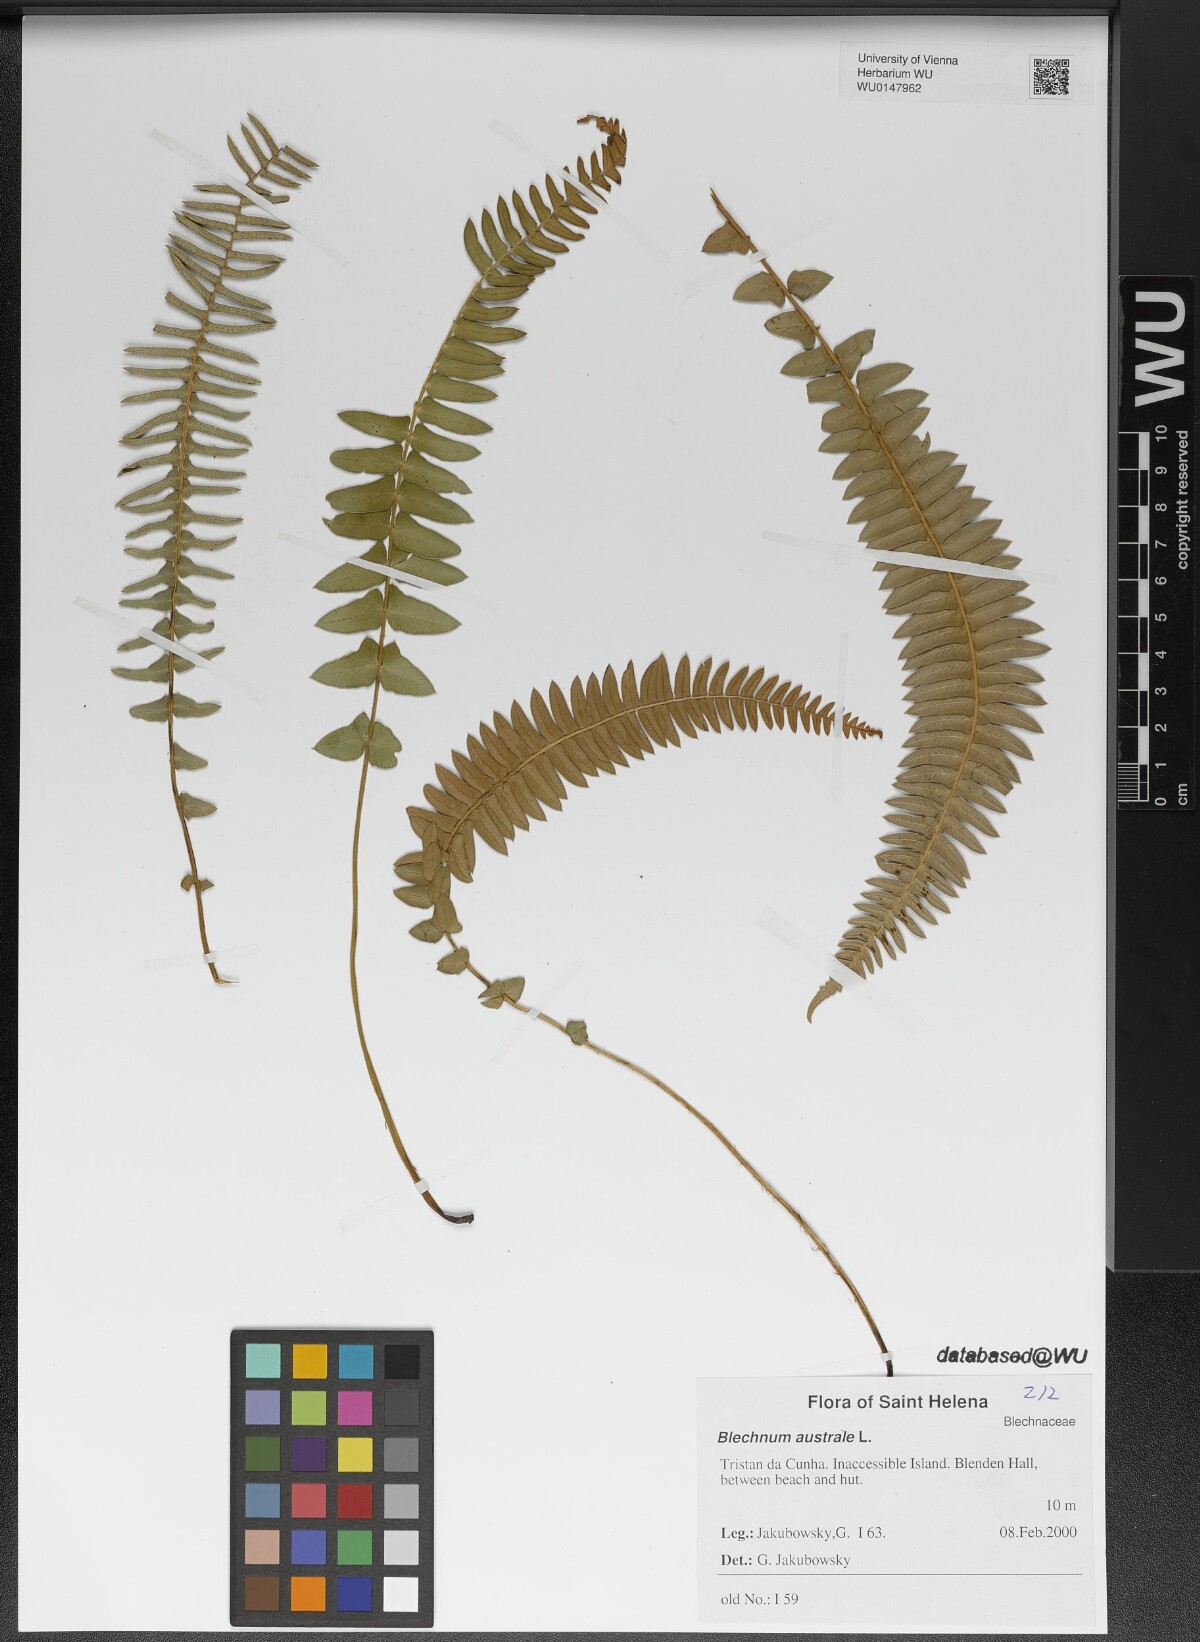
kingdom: Plantae
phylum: Tracheophyta
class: Polypodiopsida
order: Polypodiales
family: Blechnaceae
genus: Blechnum
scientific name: Blechnum australe
